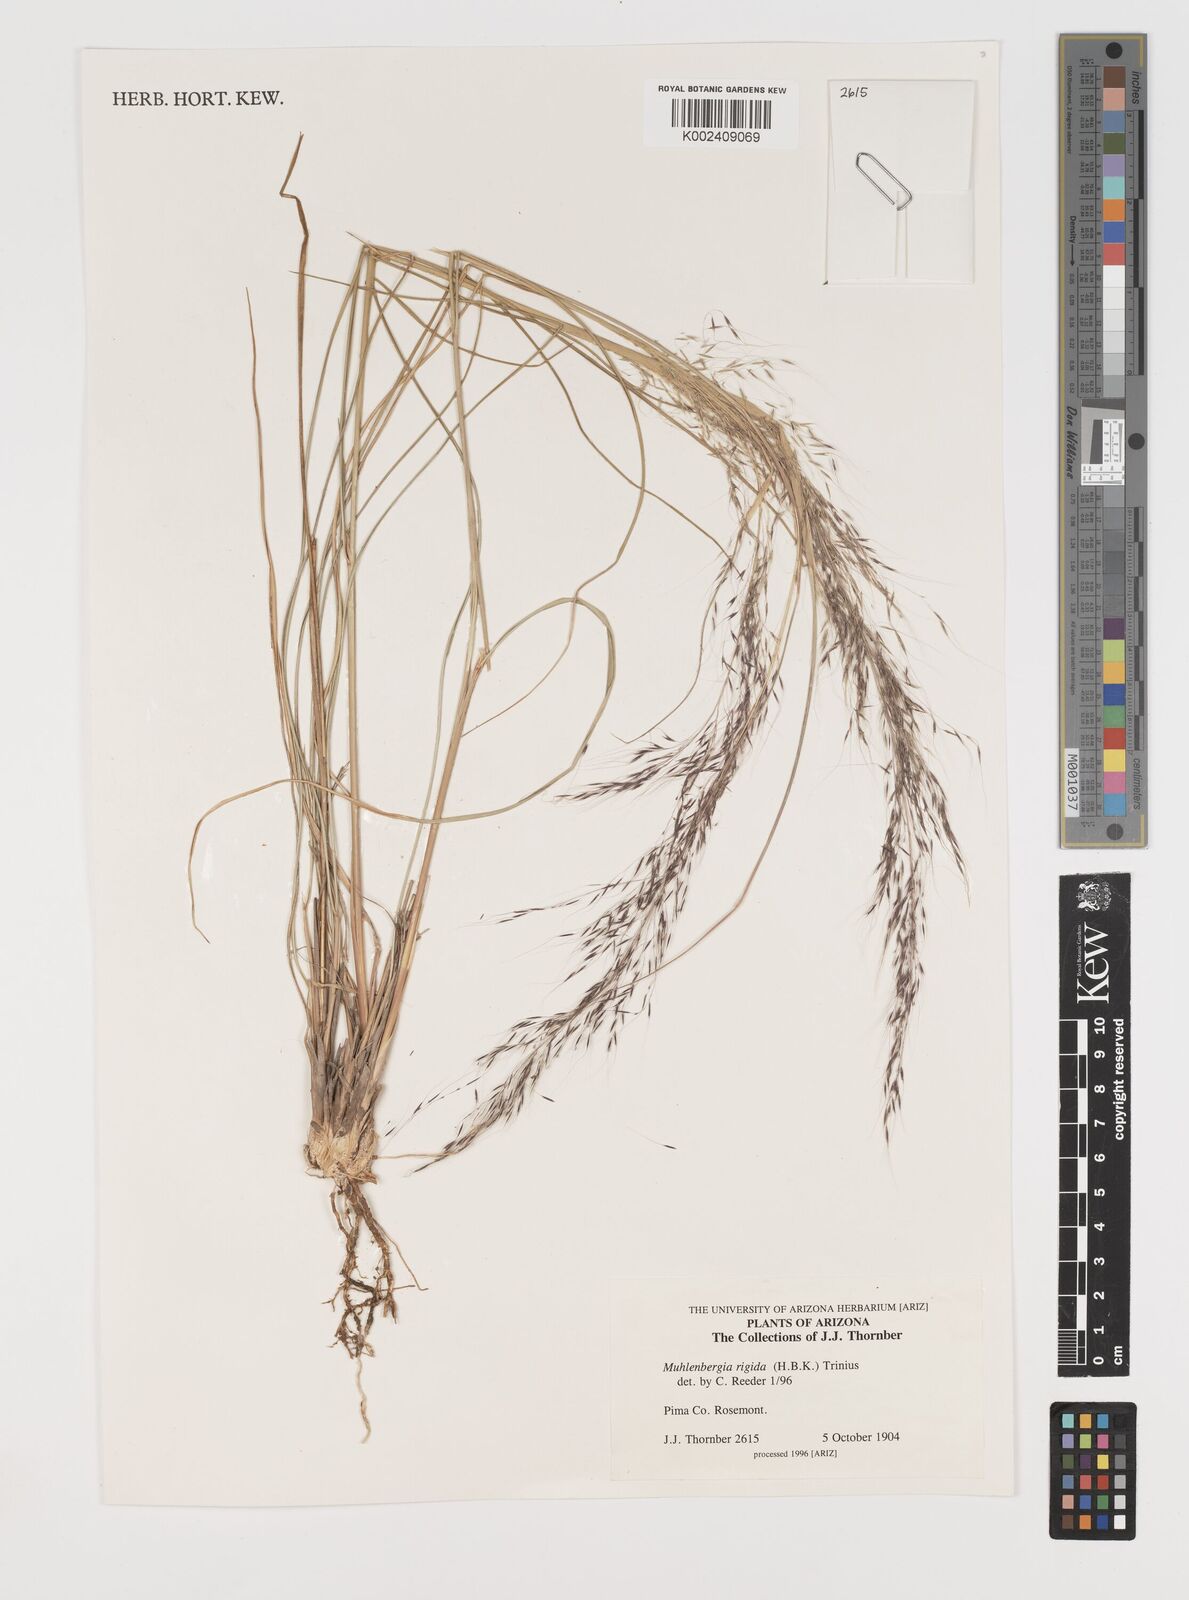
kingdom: Plantae
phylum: Tracheophyta
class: Liliopsida
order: Poales
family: Poaceae
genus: Muhlenbergia
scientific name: Muhlenbergia rigida
